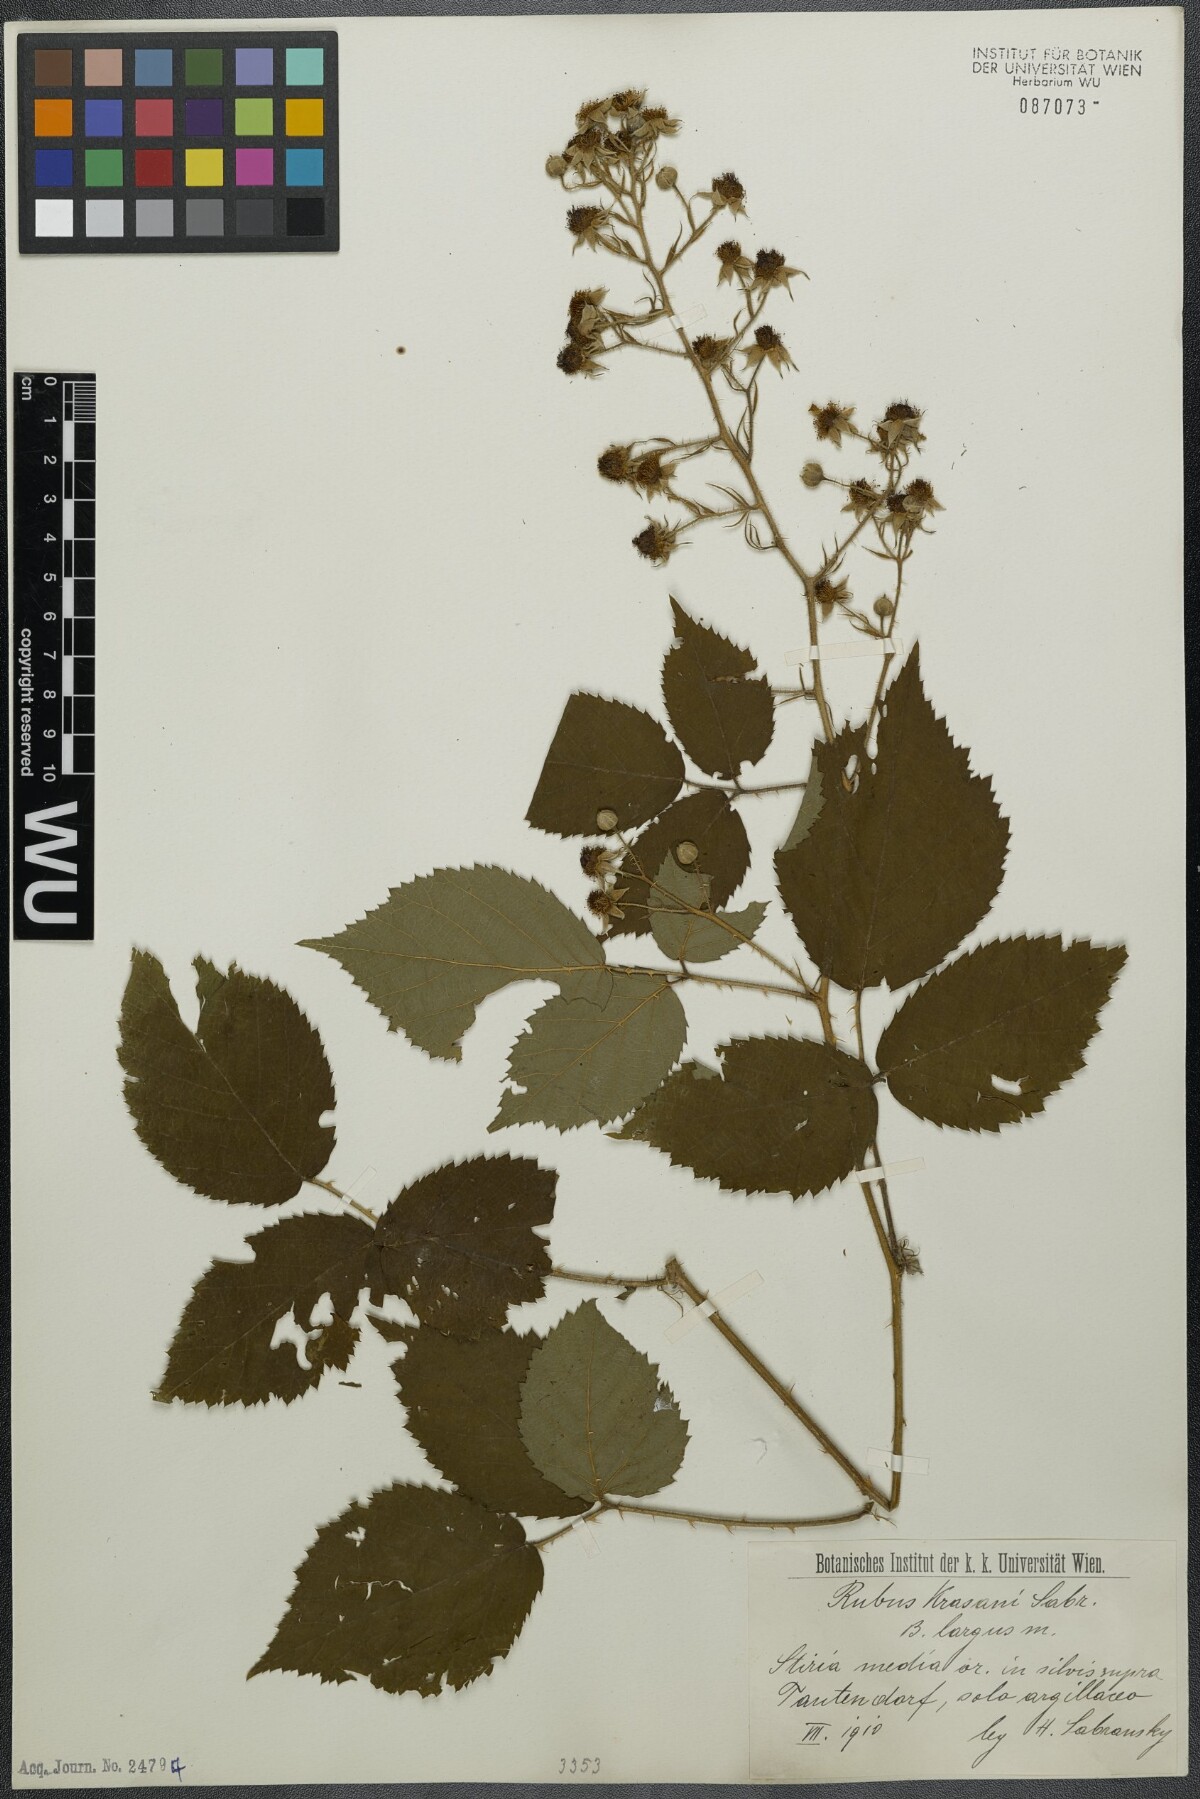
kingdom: Plantae
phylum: Tracheophyta
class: Magnoliopsida
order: Rosales
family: Rosaceae
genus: Rubus
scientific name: Rubus schleicheri
